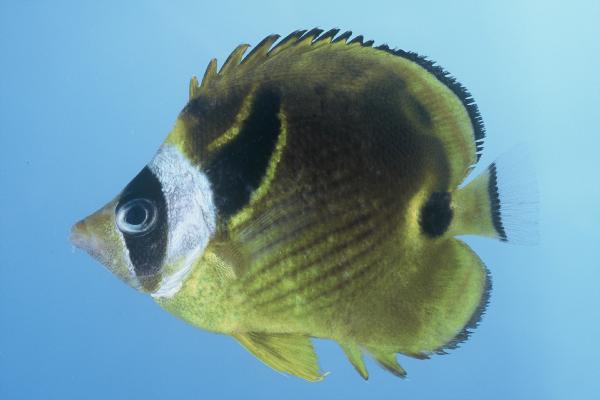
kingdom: Animalia
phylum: Chordata
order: Perciformes
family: Chaetodontidae
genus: Chaetodon
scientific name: Chaetodon lunula
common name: Raccoon butterflyfish
